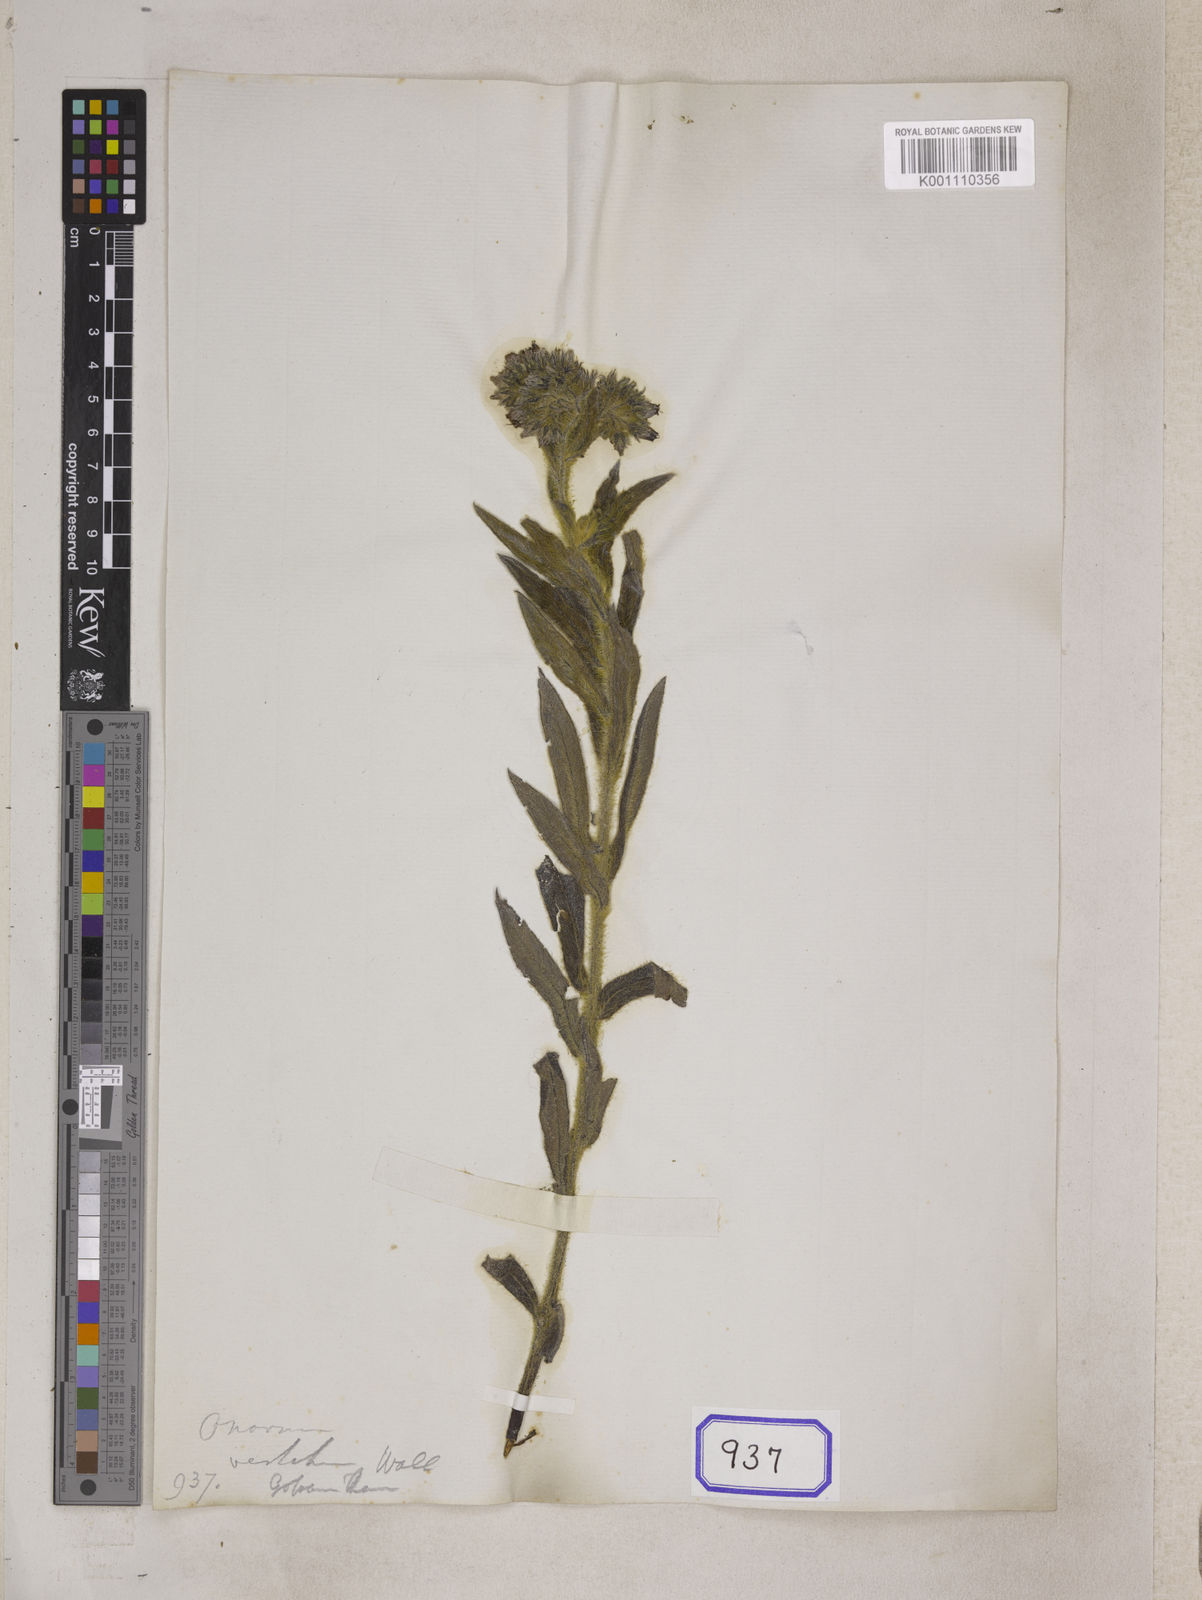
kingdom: Plantae
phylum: Tracheophyta
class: Magnoliopsida
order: Boraginales
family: Boraginaceae
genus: Onosma
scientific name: Onosma
